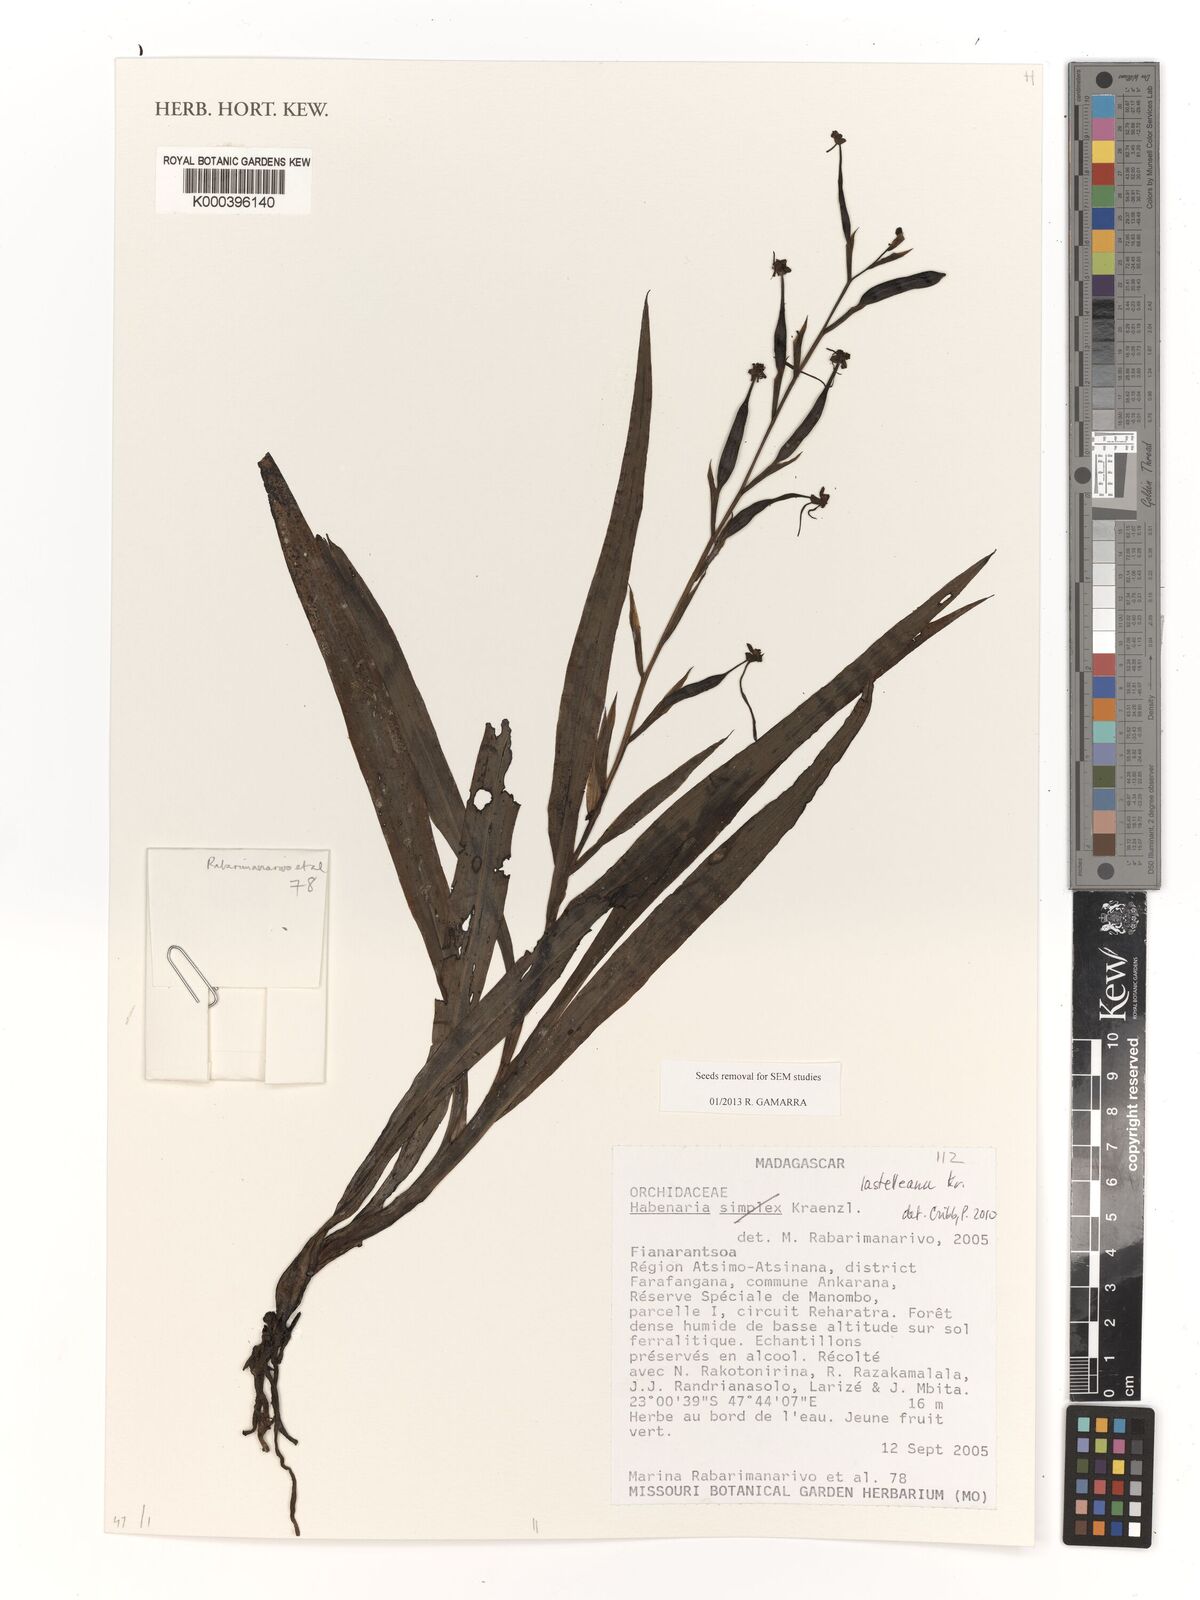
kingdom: Plantae
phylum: Tracheophyta
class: Liliopsida
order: Asparagales
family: Orchidaceae
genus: Habenaria
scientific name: Habenaria lastelleana
